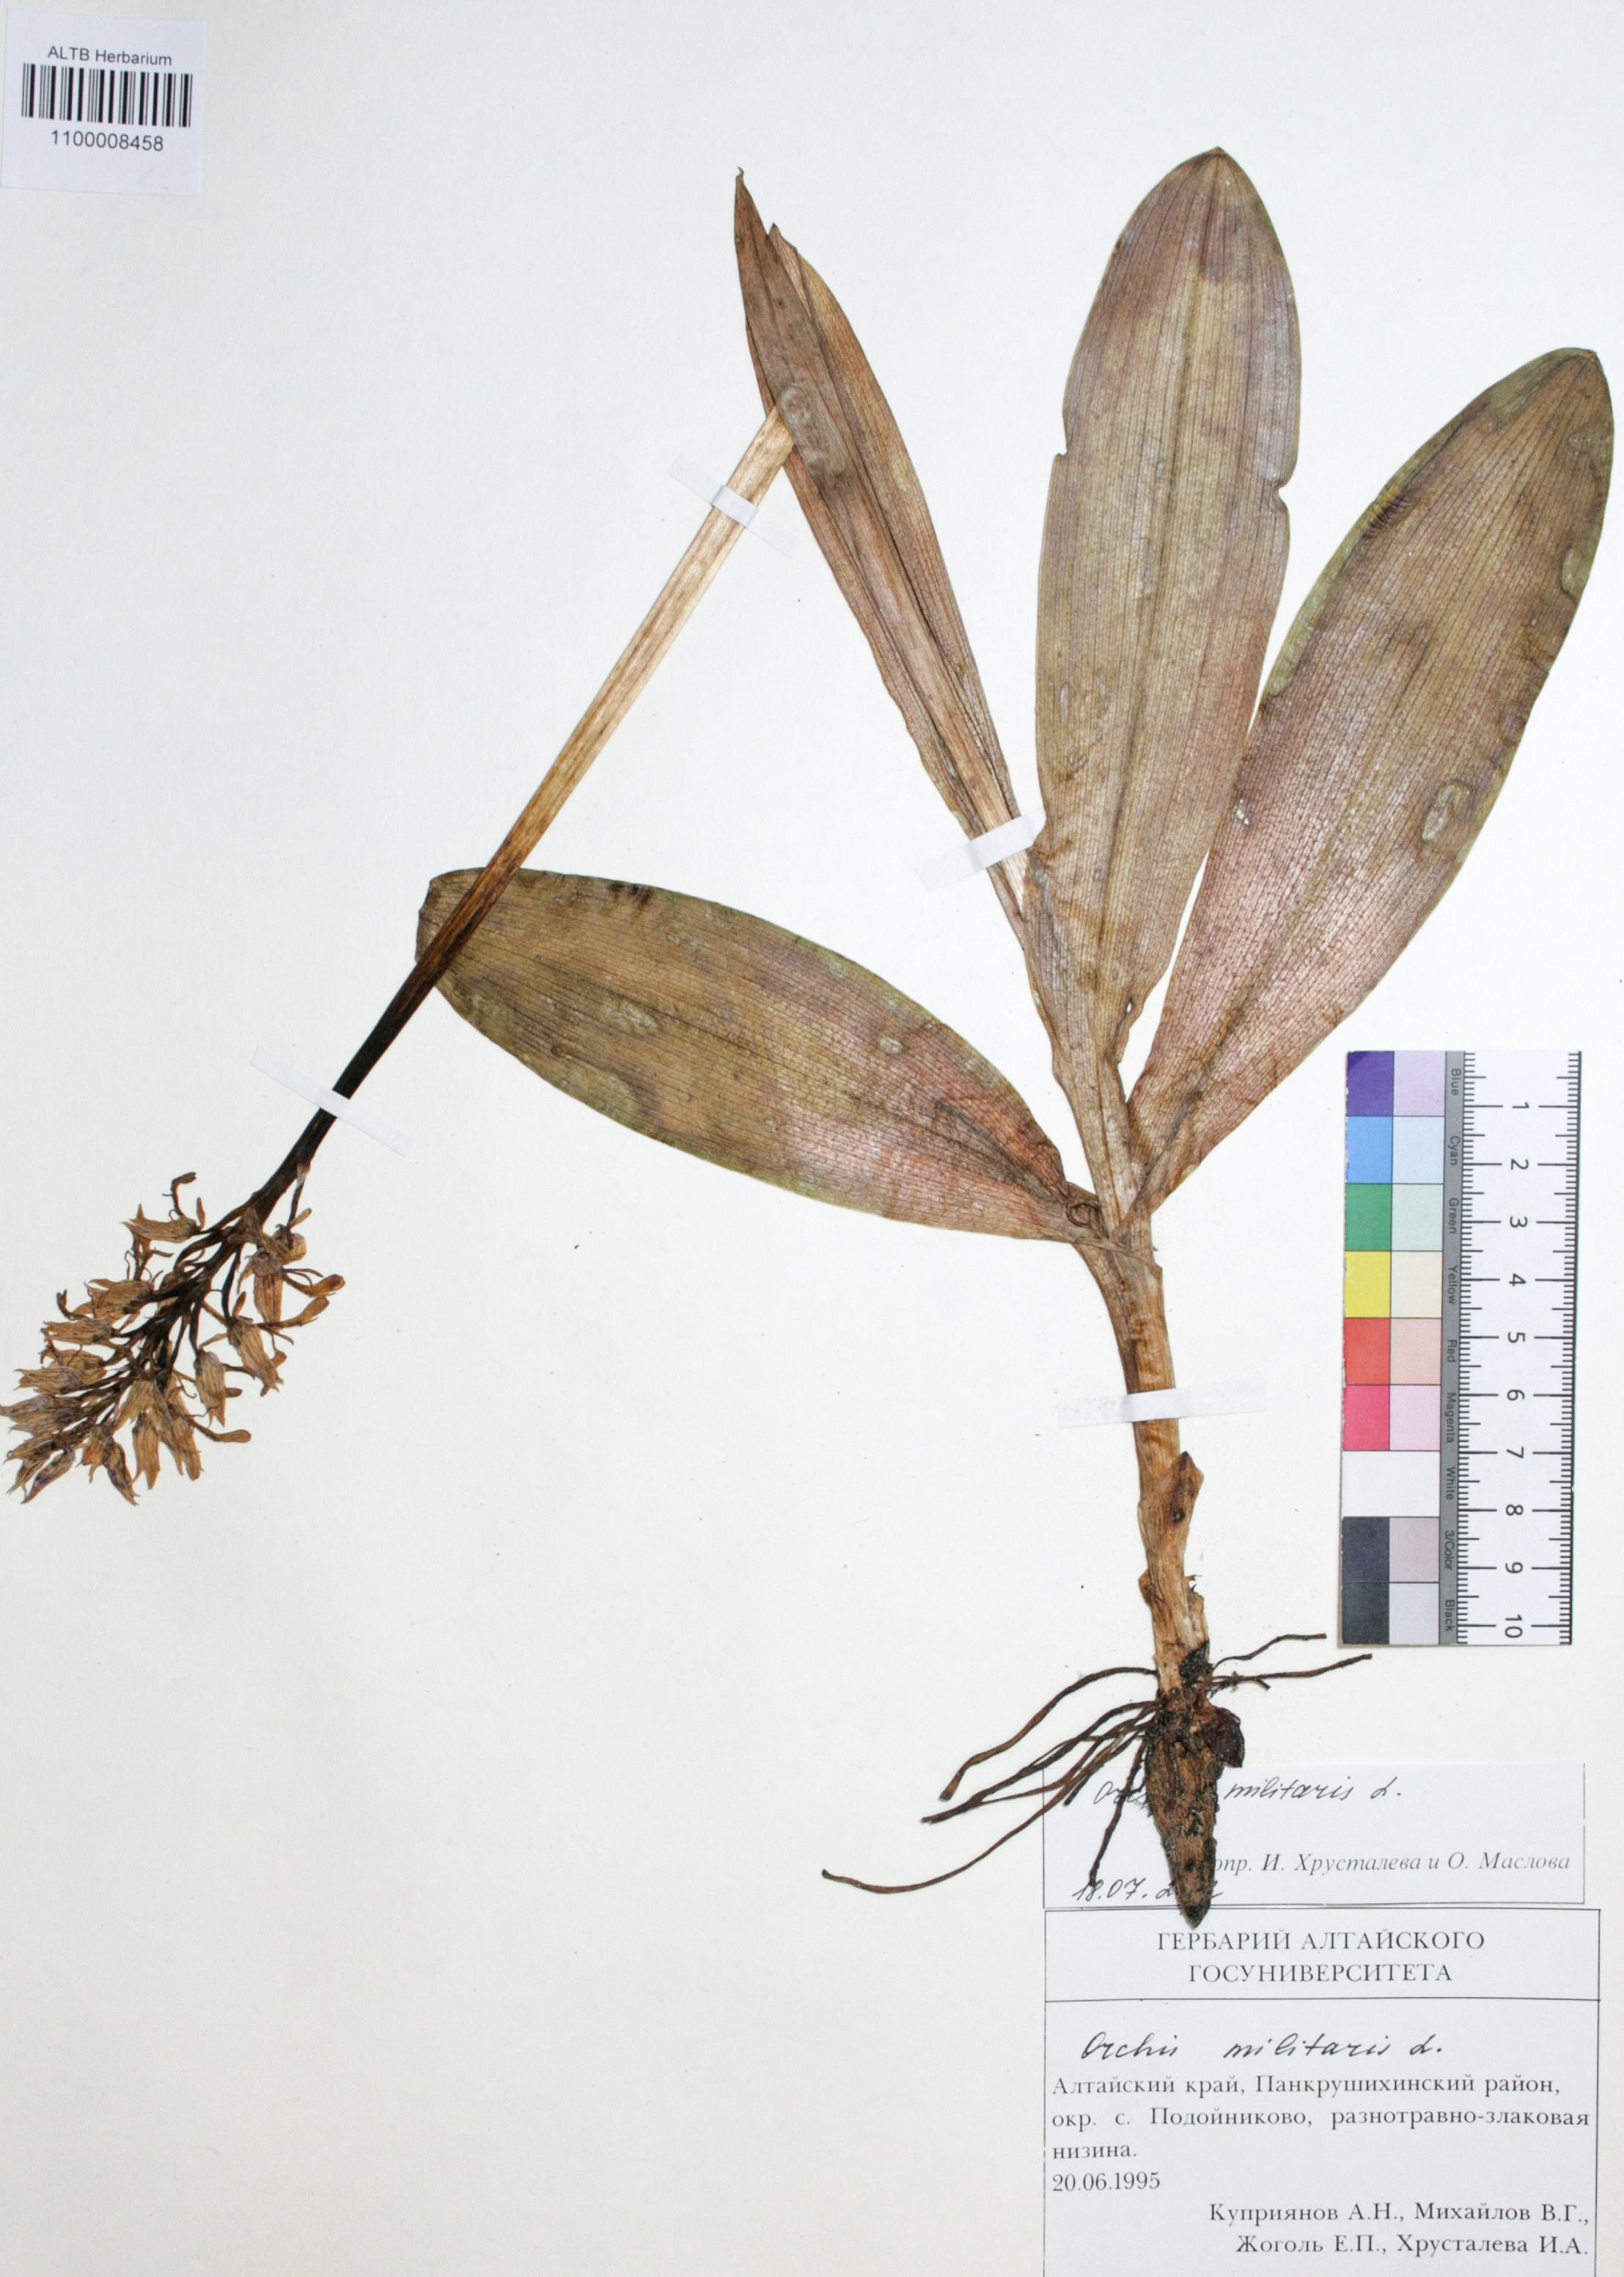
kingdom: Plantae
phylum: Tracheophyta
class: Liliopsida
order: Asparagales
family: Orchidaceae
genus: Orchis
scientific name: Orchis militaris
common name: Military orchid
